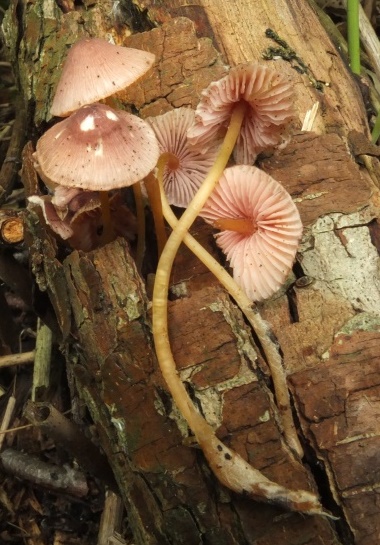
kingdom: Fungi
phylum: Basidiomycota
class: Agaricomycetes
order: Agaricales
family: Mycenaceae
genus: Mycena
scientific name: Mycena renati
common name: smuk huesvamp
